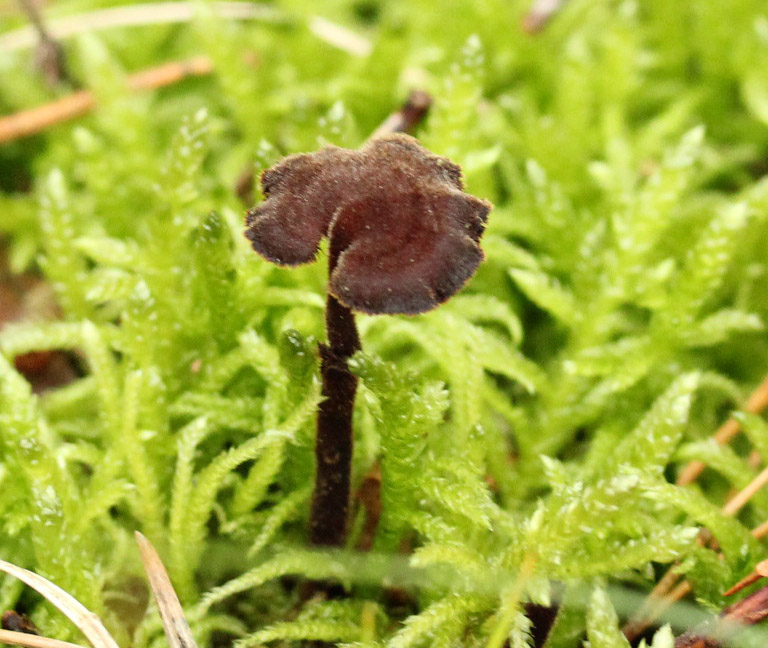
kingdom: Fungi
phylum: Basidiomycota
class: Agaricomycetes
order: Russulales
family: Auriscalpiaceae
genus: Auriscalpium
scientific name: Auriscalpium vulgare
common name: koglepigsvamp
